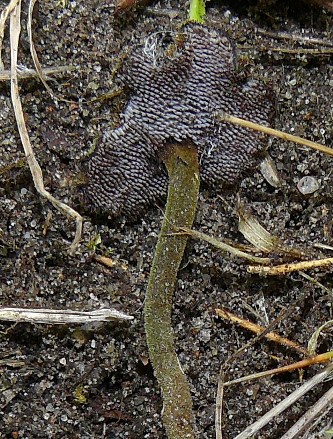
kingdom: Fungi
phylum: Basidiomycota
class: Agaricomycetes
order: Russulales
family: Auriscalpiaceae
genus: Auriscalpium
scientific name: Auriscalpium vulgare
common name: koglepigsvamp
